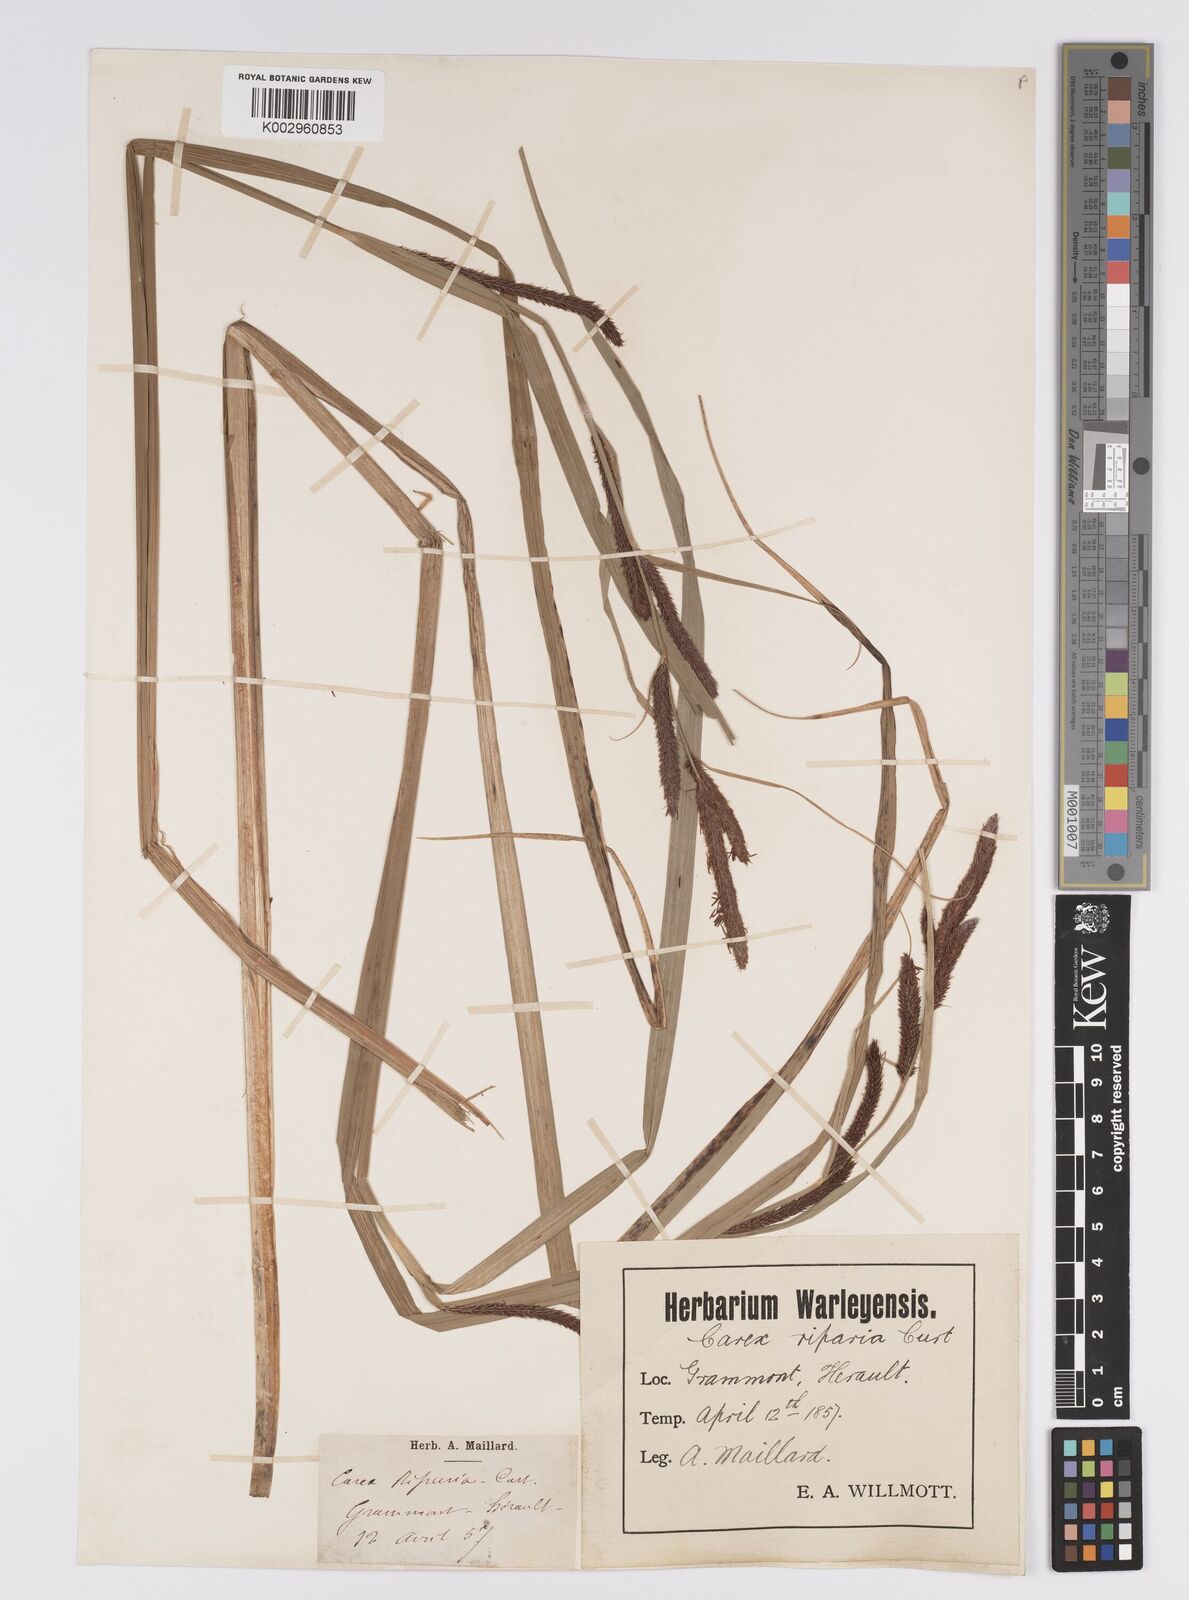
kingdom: Plantae
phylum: Tracheophyta
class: Liliopsida
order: Poales
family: Cyperaceae
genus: Carex
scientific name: Carex acutiformis
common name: Lesser pond-sedge
